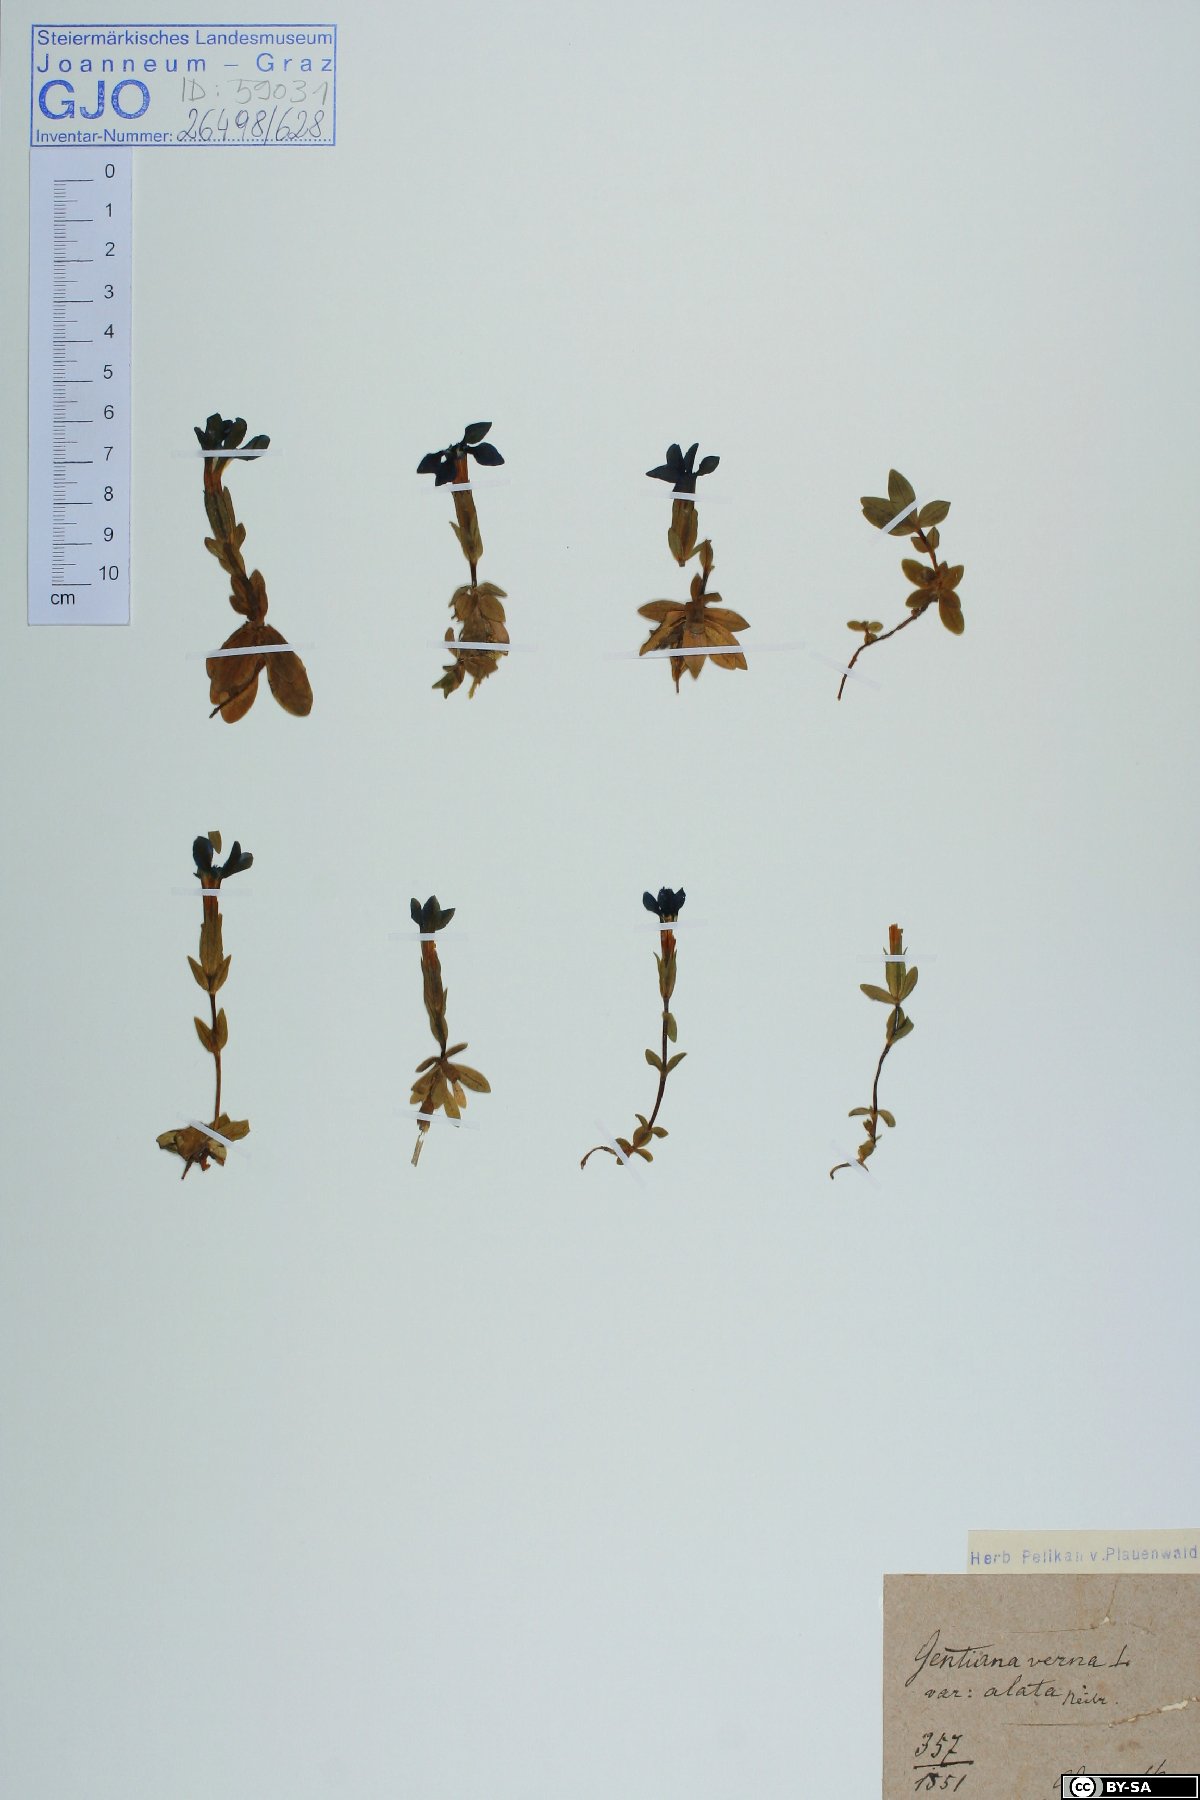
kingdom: Plantae
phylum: Tracheophyta
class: Magnoliopsida
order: Gentianales
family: Gentianaceae
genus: Gentiana
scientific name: Gentiana verna
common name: Spring gentian
